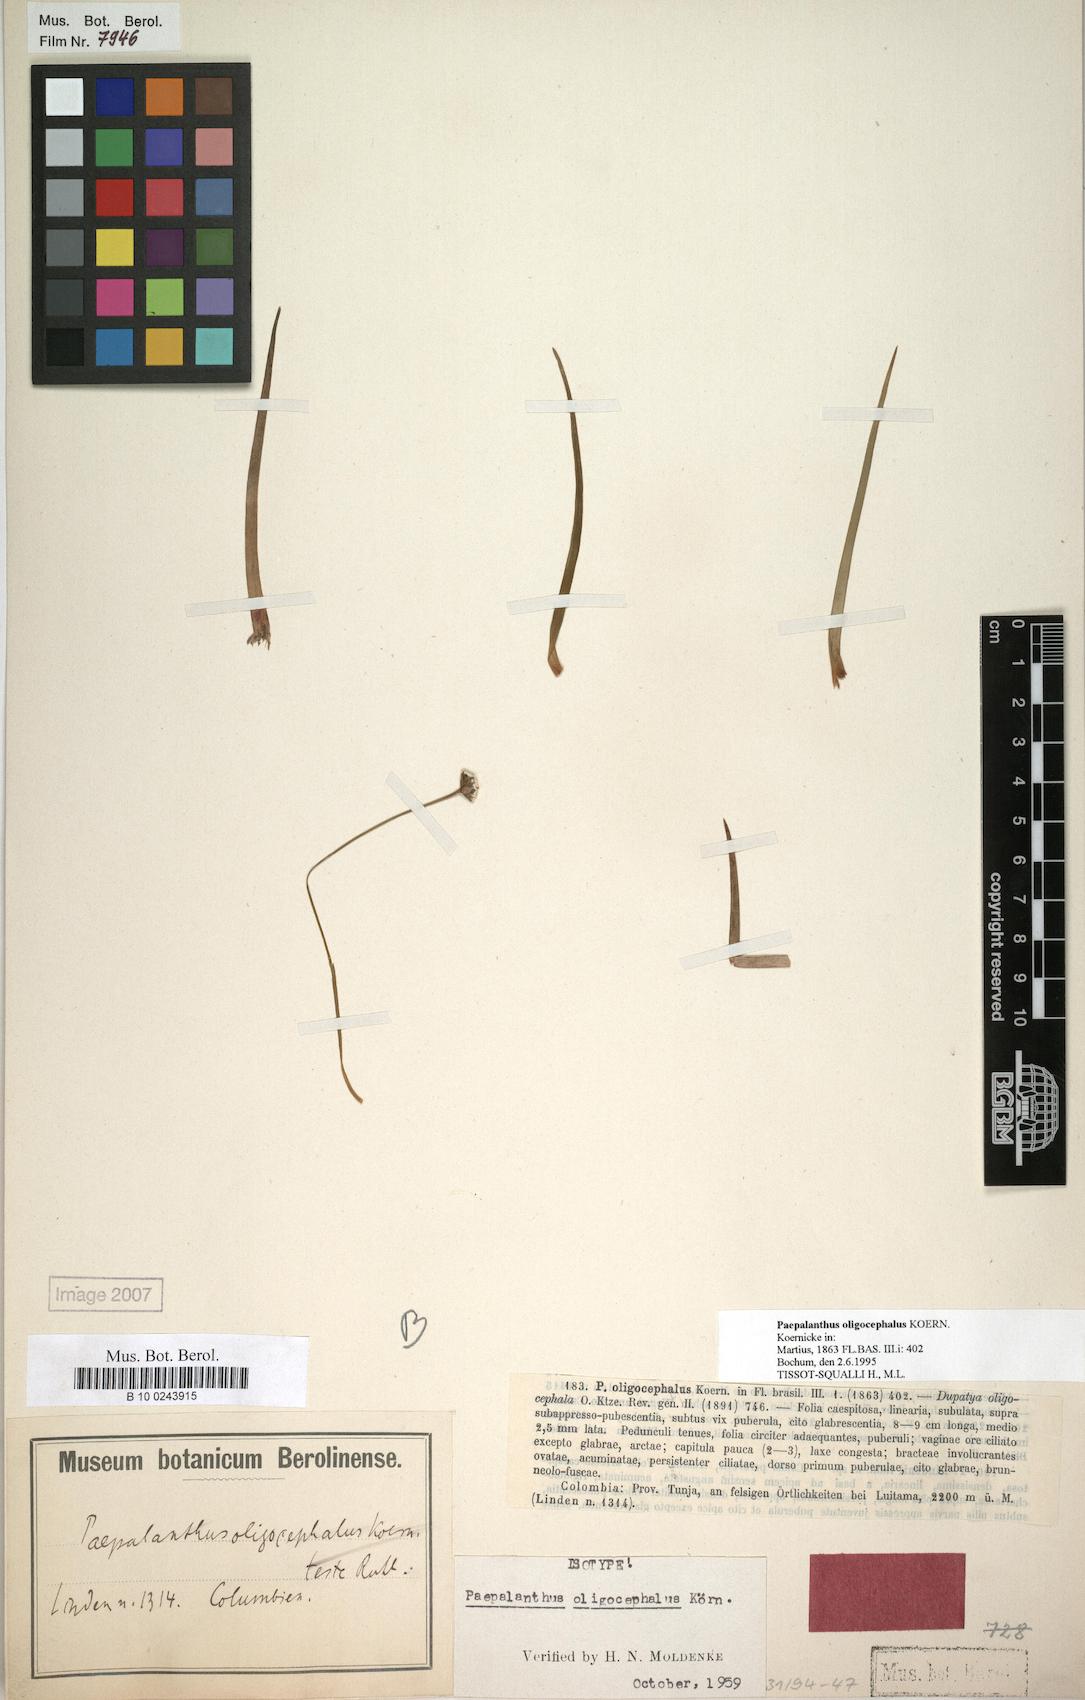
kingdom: Plantae
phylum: Tracheophyta
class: Liliopsida
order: Poales
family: Eriocaulaceae
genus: Paepalanthus
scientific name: Paepalanthus oligocephalus
